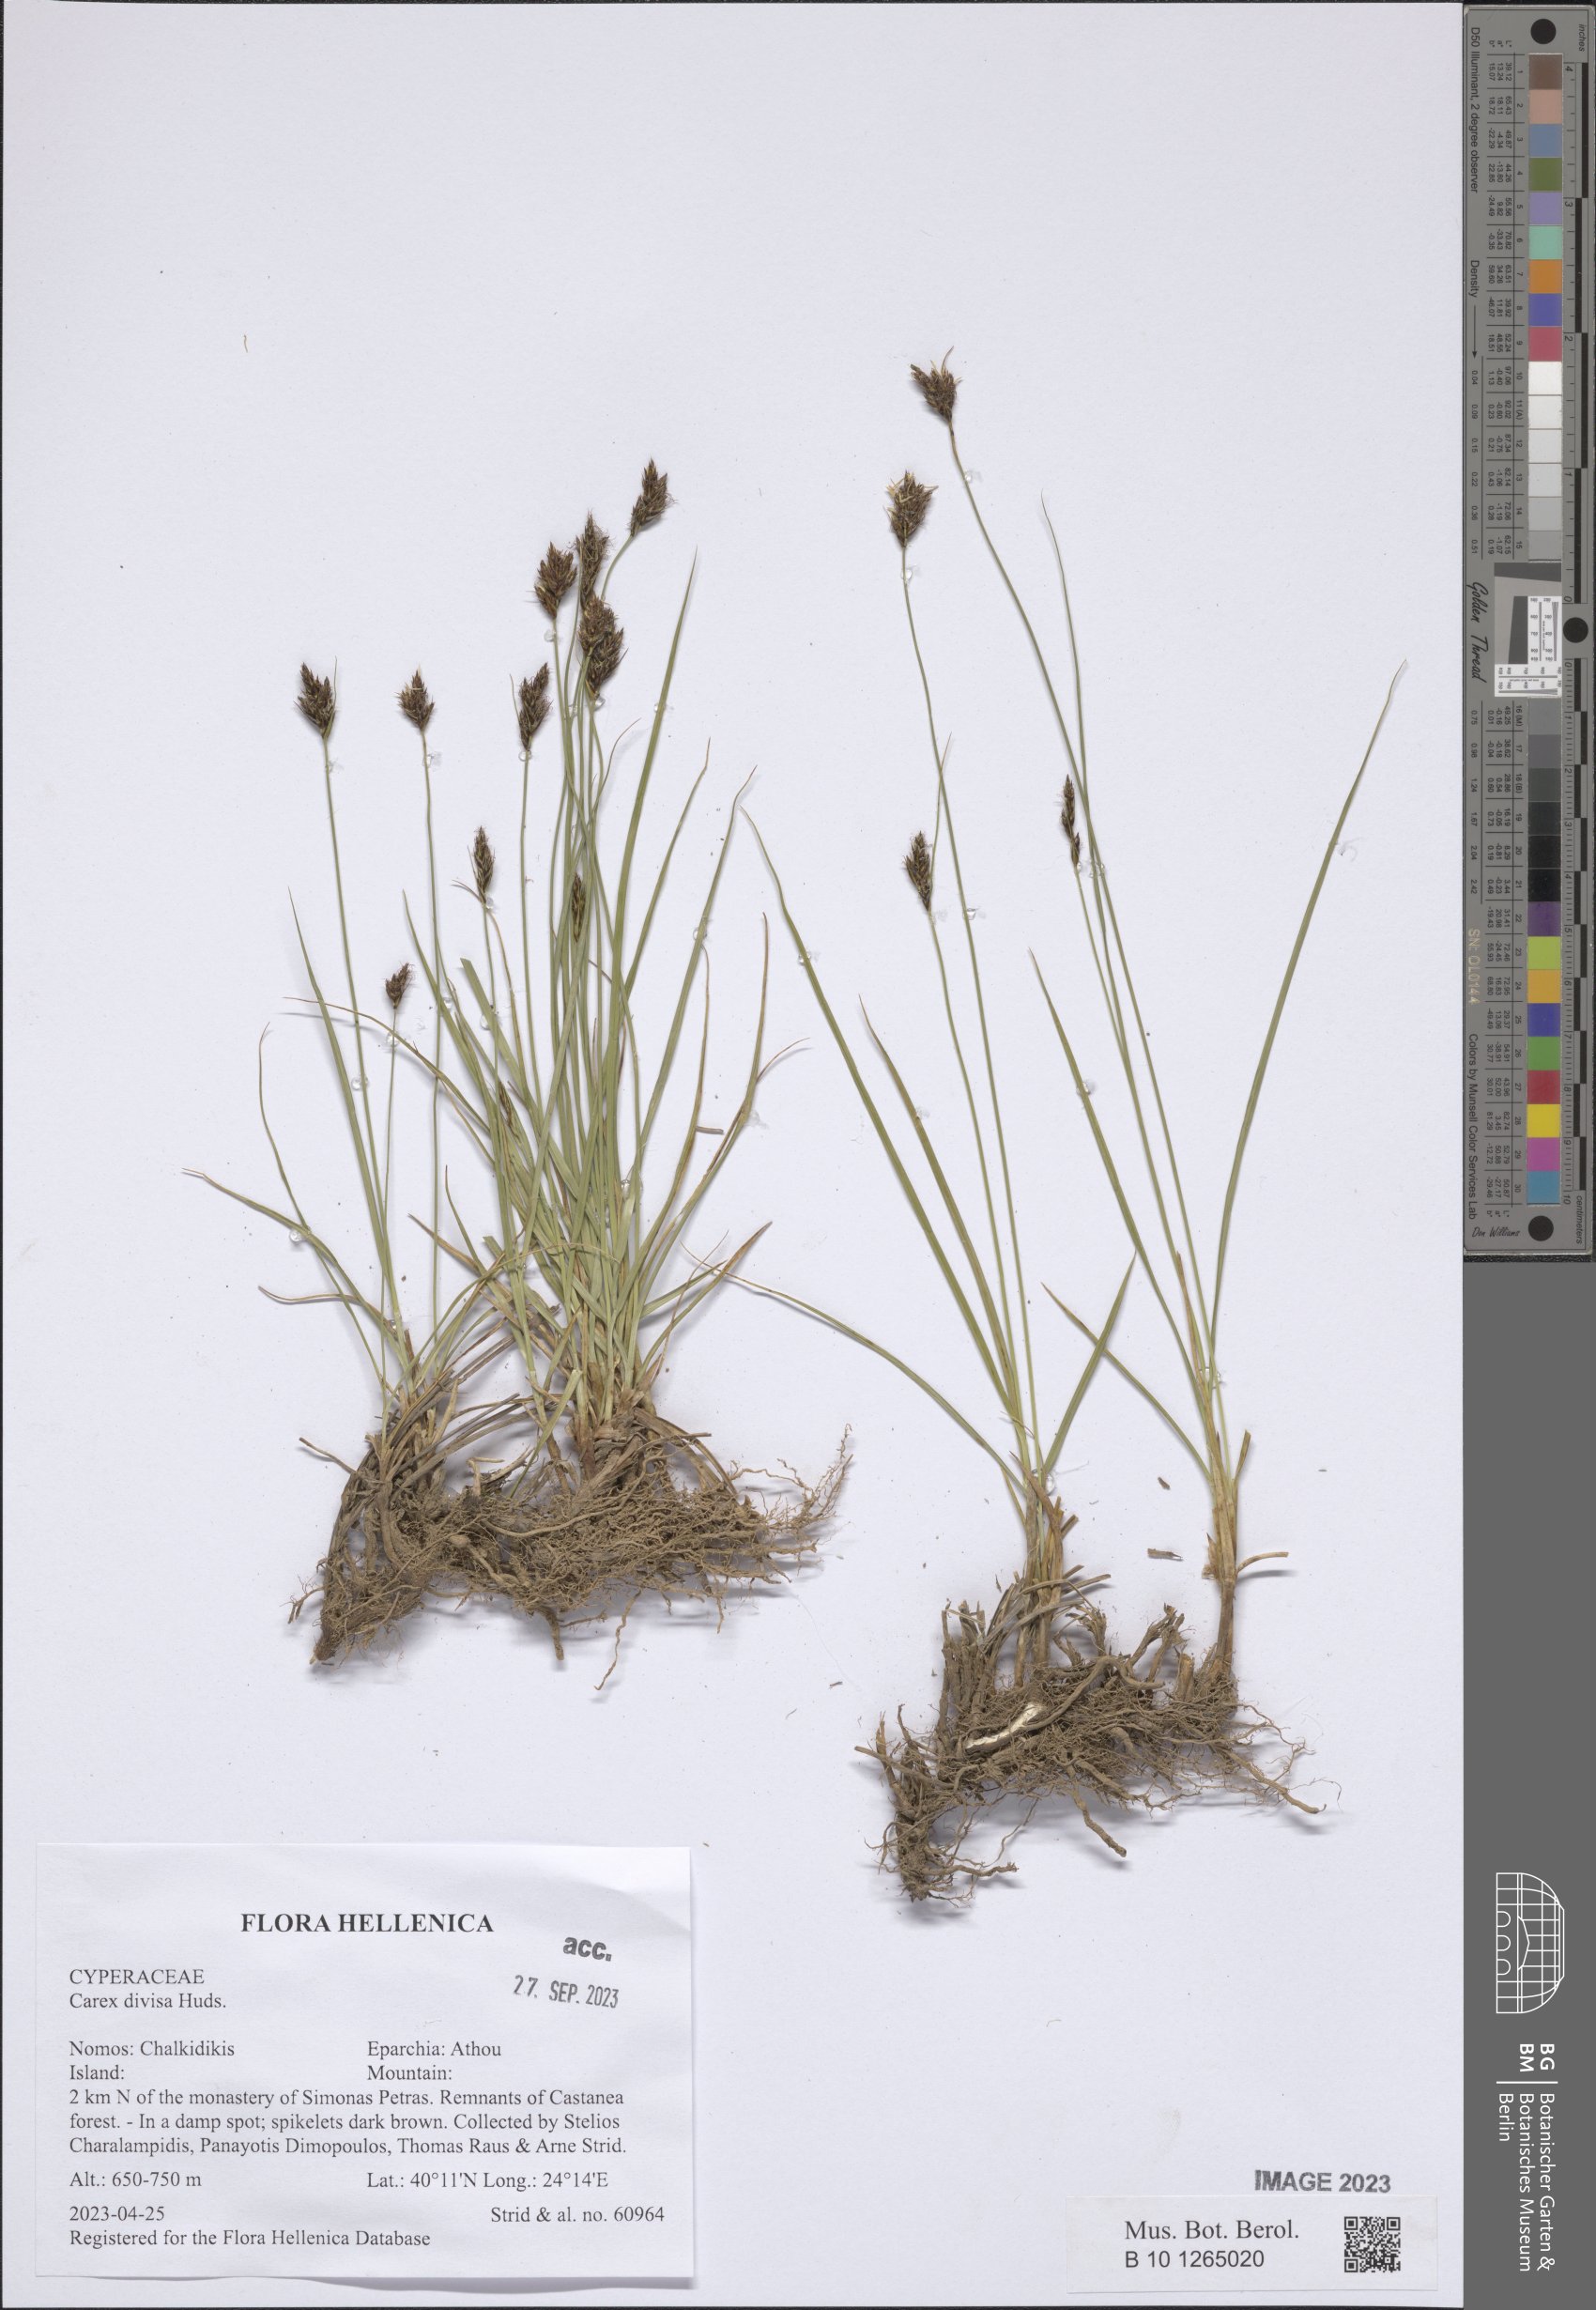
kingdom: Plantae
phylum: Tracheophyta
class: Liliopsida
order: Poales
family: Cyperaceae
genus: Carex
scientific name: Carex divisa
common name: Divided sedge
